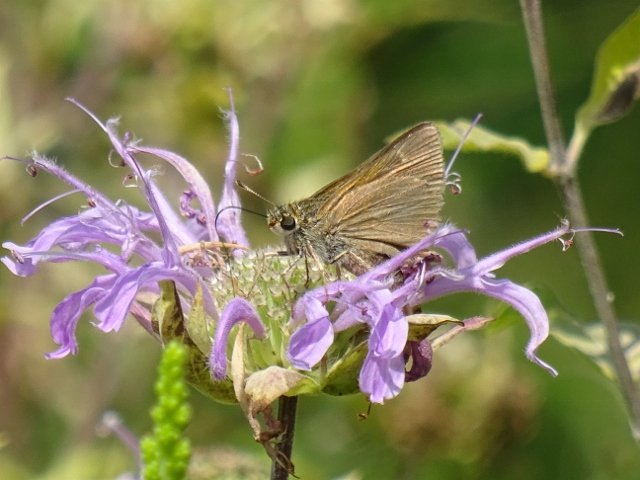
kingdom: Animalia
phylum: Arthropoda
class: Insecta
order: Lepidoptera
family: Hesperiidae
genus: Polites
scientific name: Polites
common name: Crossline Skipper
